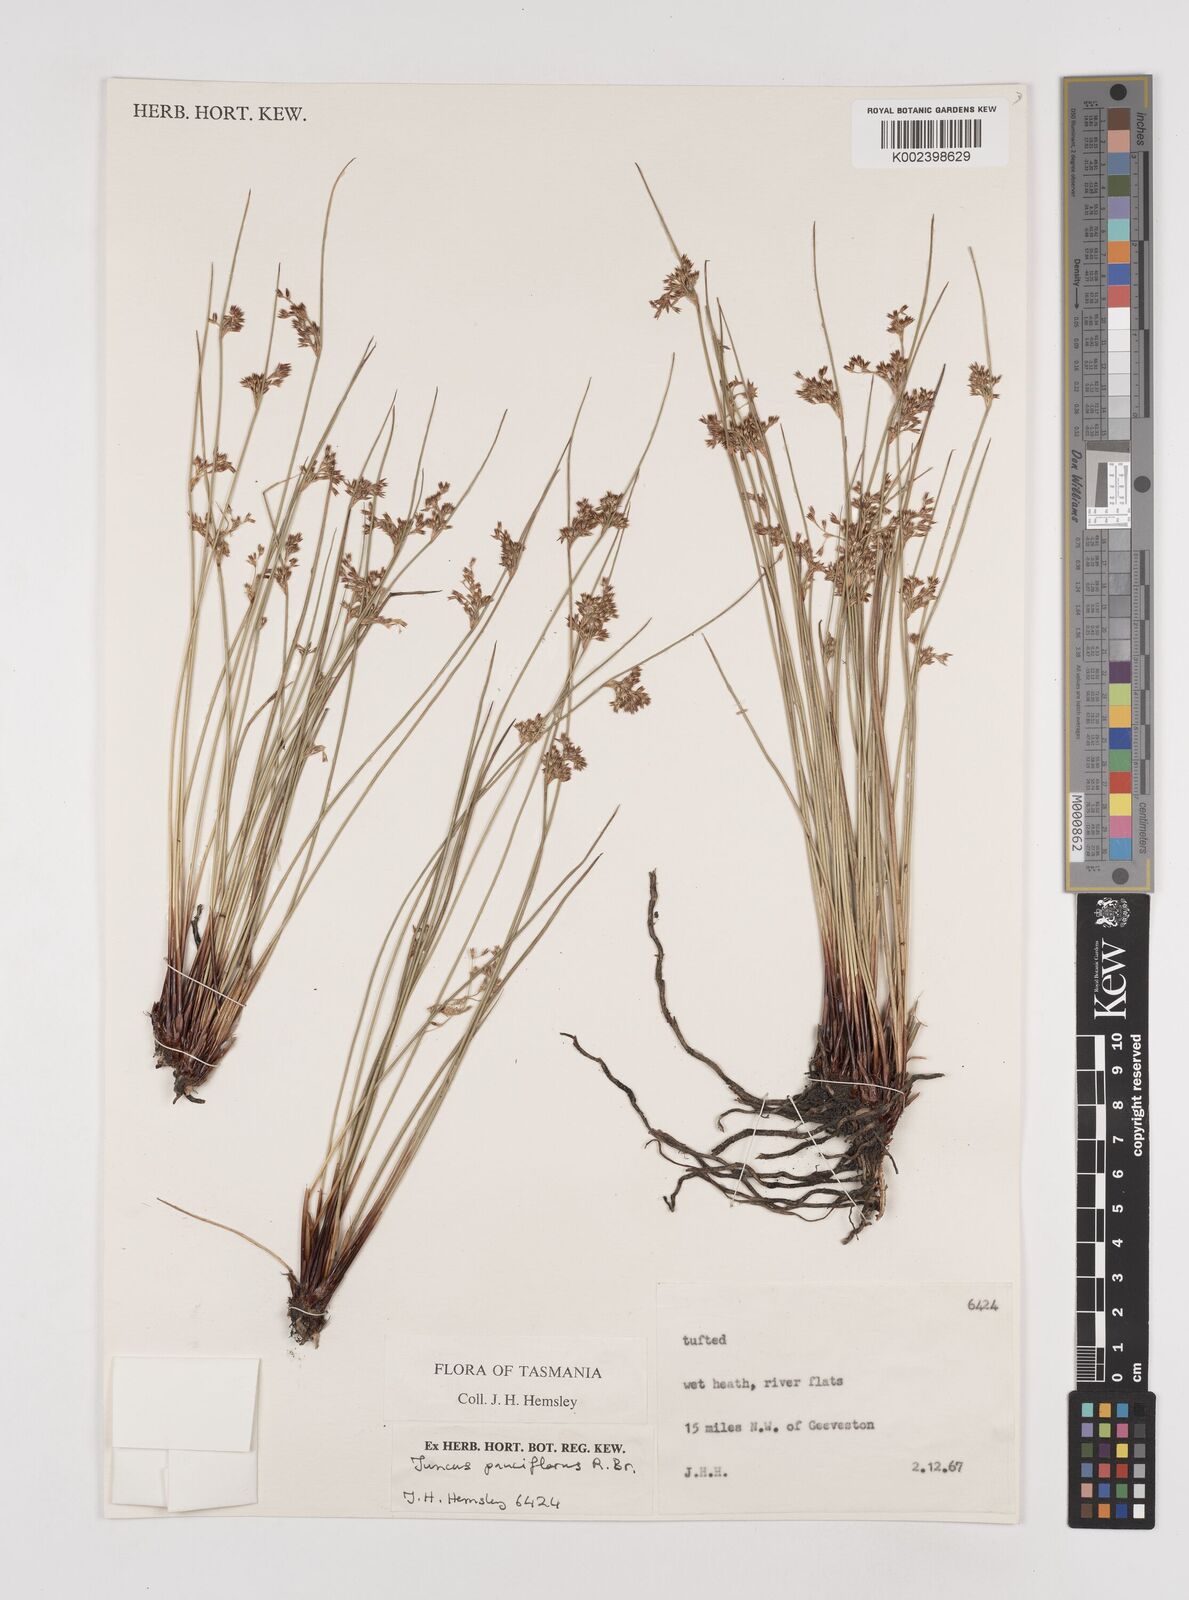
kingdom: Plantae
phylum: Tracheophyta
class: Liliopsida
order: Poales
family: Juncaceae
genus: Juncus
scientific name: Juncus pauciflorus
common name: Loose-flowered rush
